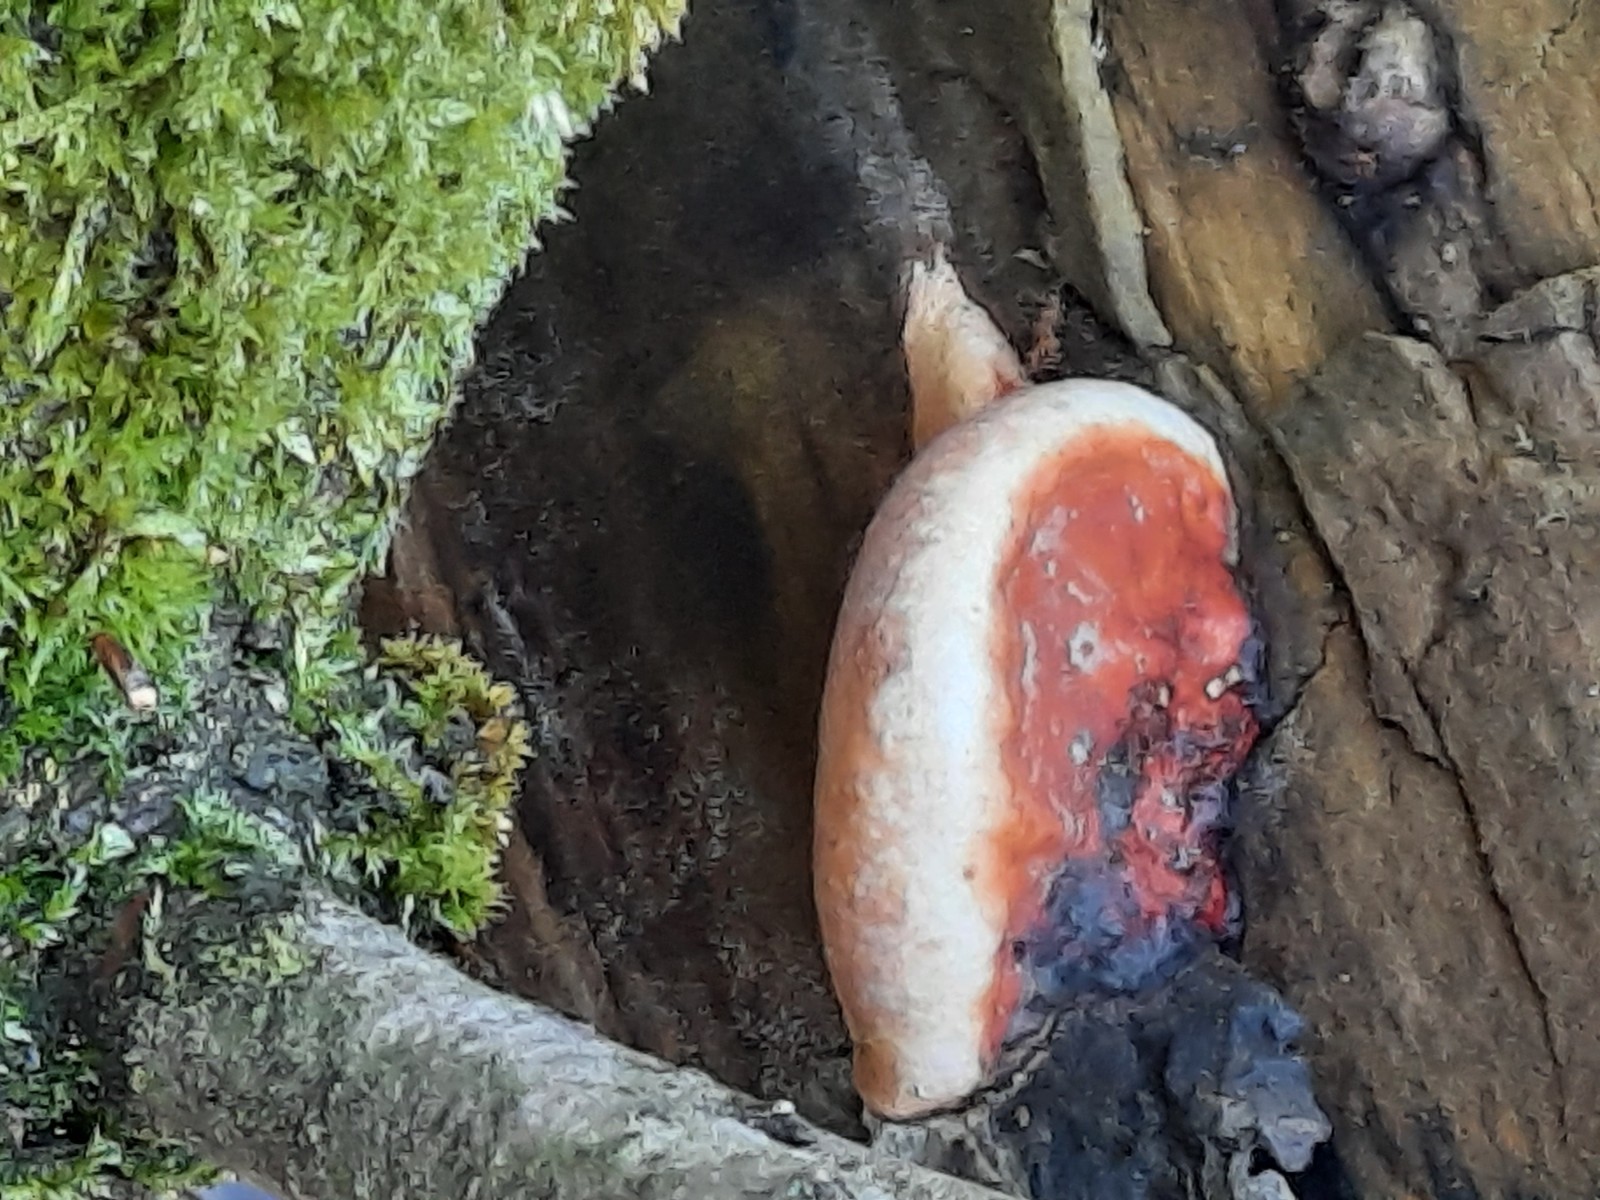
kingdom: Fungi
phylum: Basidiomycota
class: Agaricomycetes
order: Polyporales
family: Fomitopsidaceae
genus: Fomitopsis
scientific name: Fomitopsis pinicola
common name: randbæltet hovporesvamp
